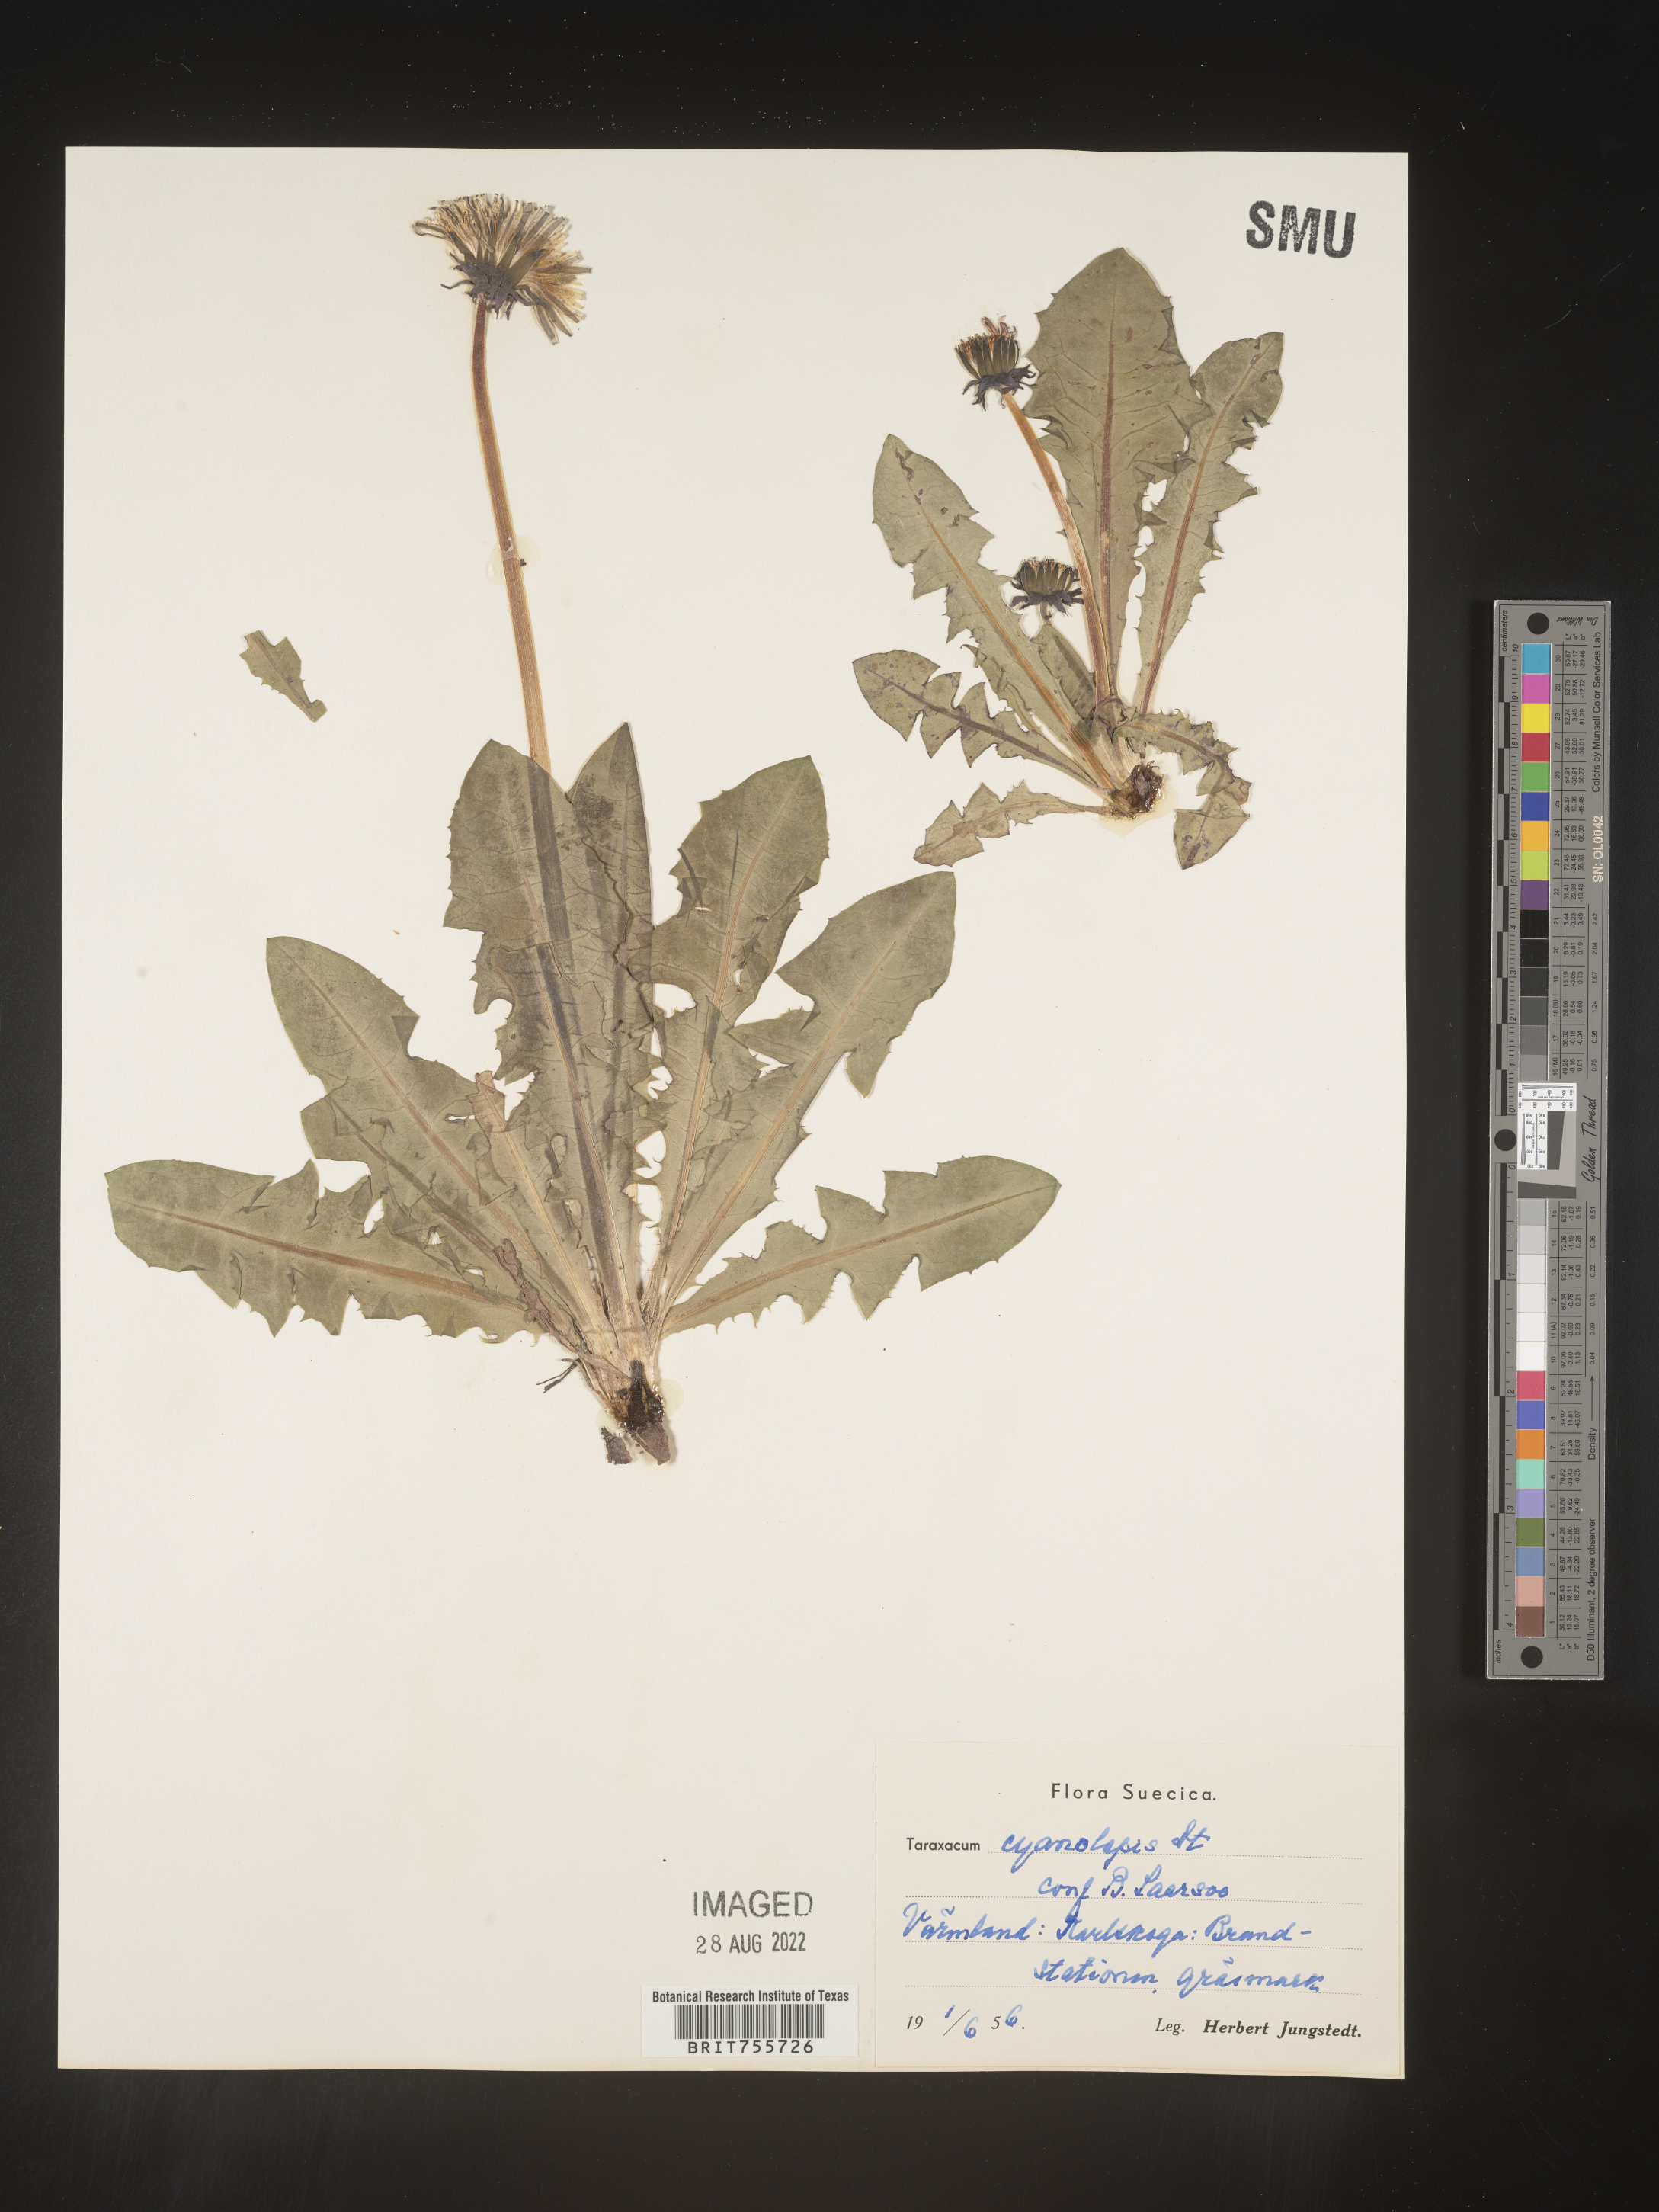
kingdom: Plantae
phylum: Tracheophyta
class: Magnoliopsida
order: Asterales
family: Asteraceae
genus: Taraxacum
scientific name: Taraxacum
